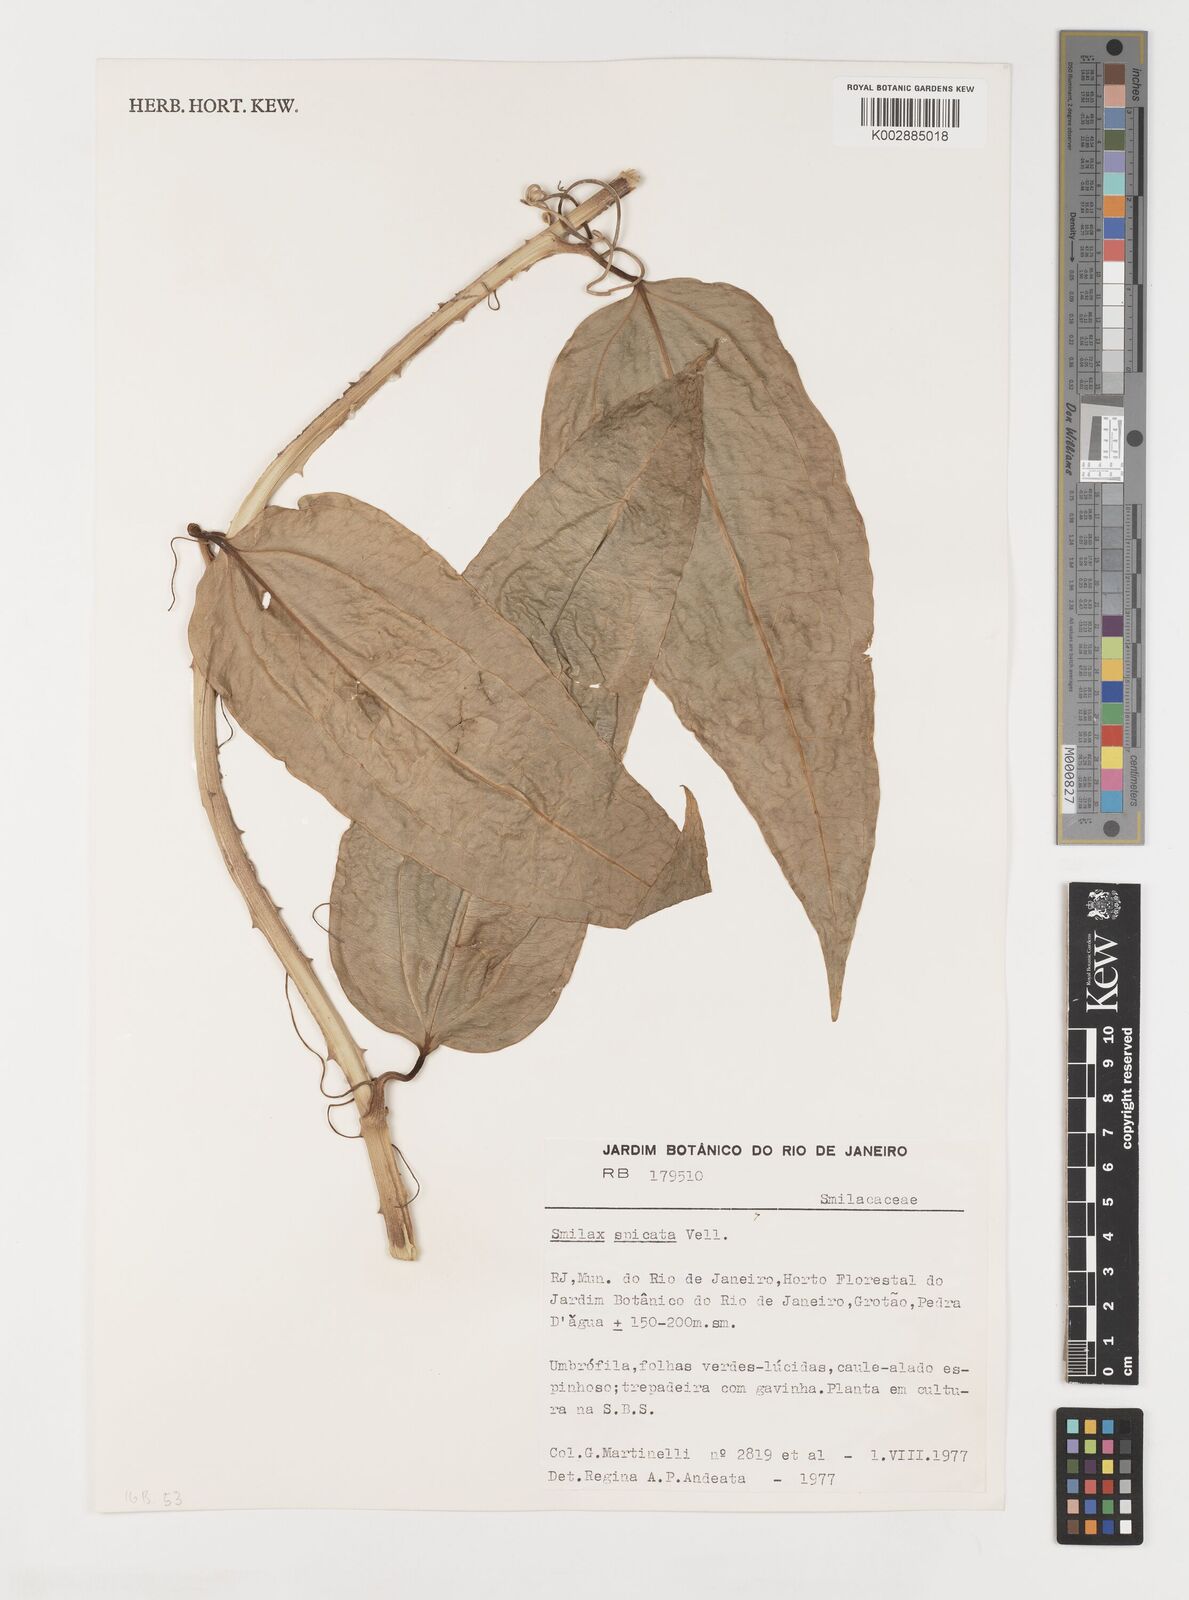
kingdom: Plantae
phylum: Tracheophyta
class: Liliopsida
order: Liliales
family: Smilacaceae
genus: Smilax
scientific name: Smilax spicata
